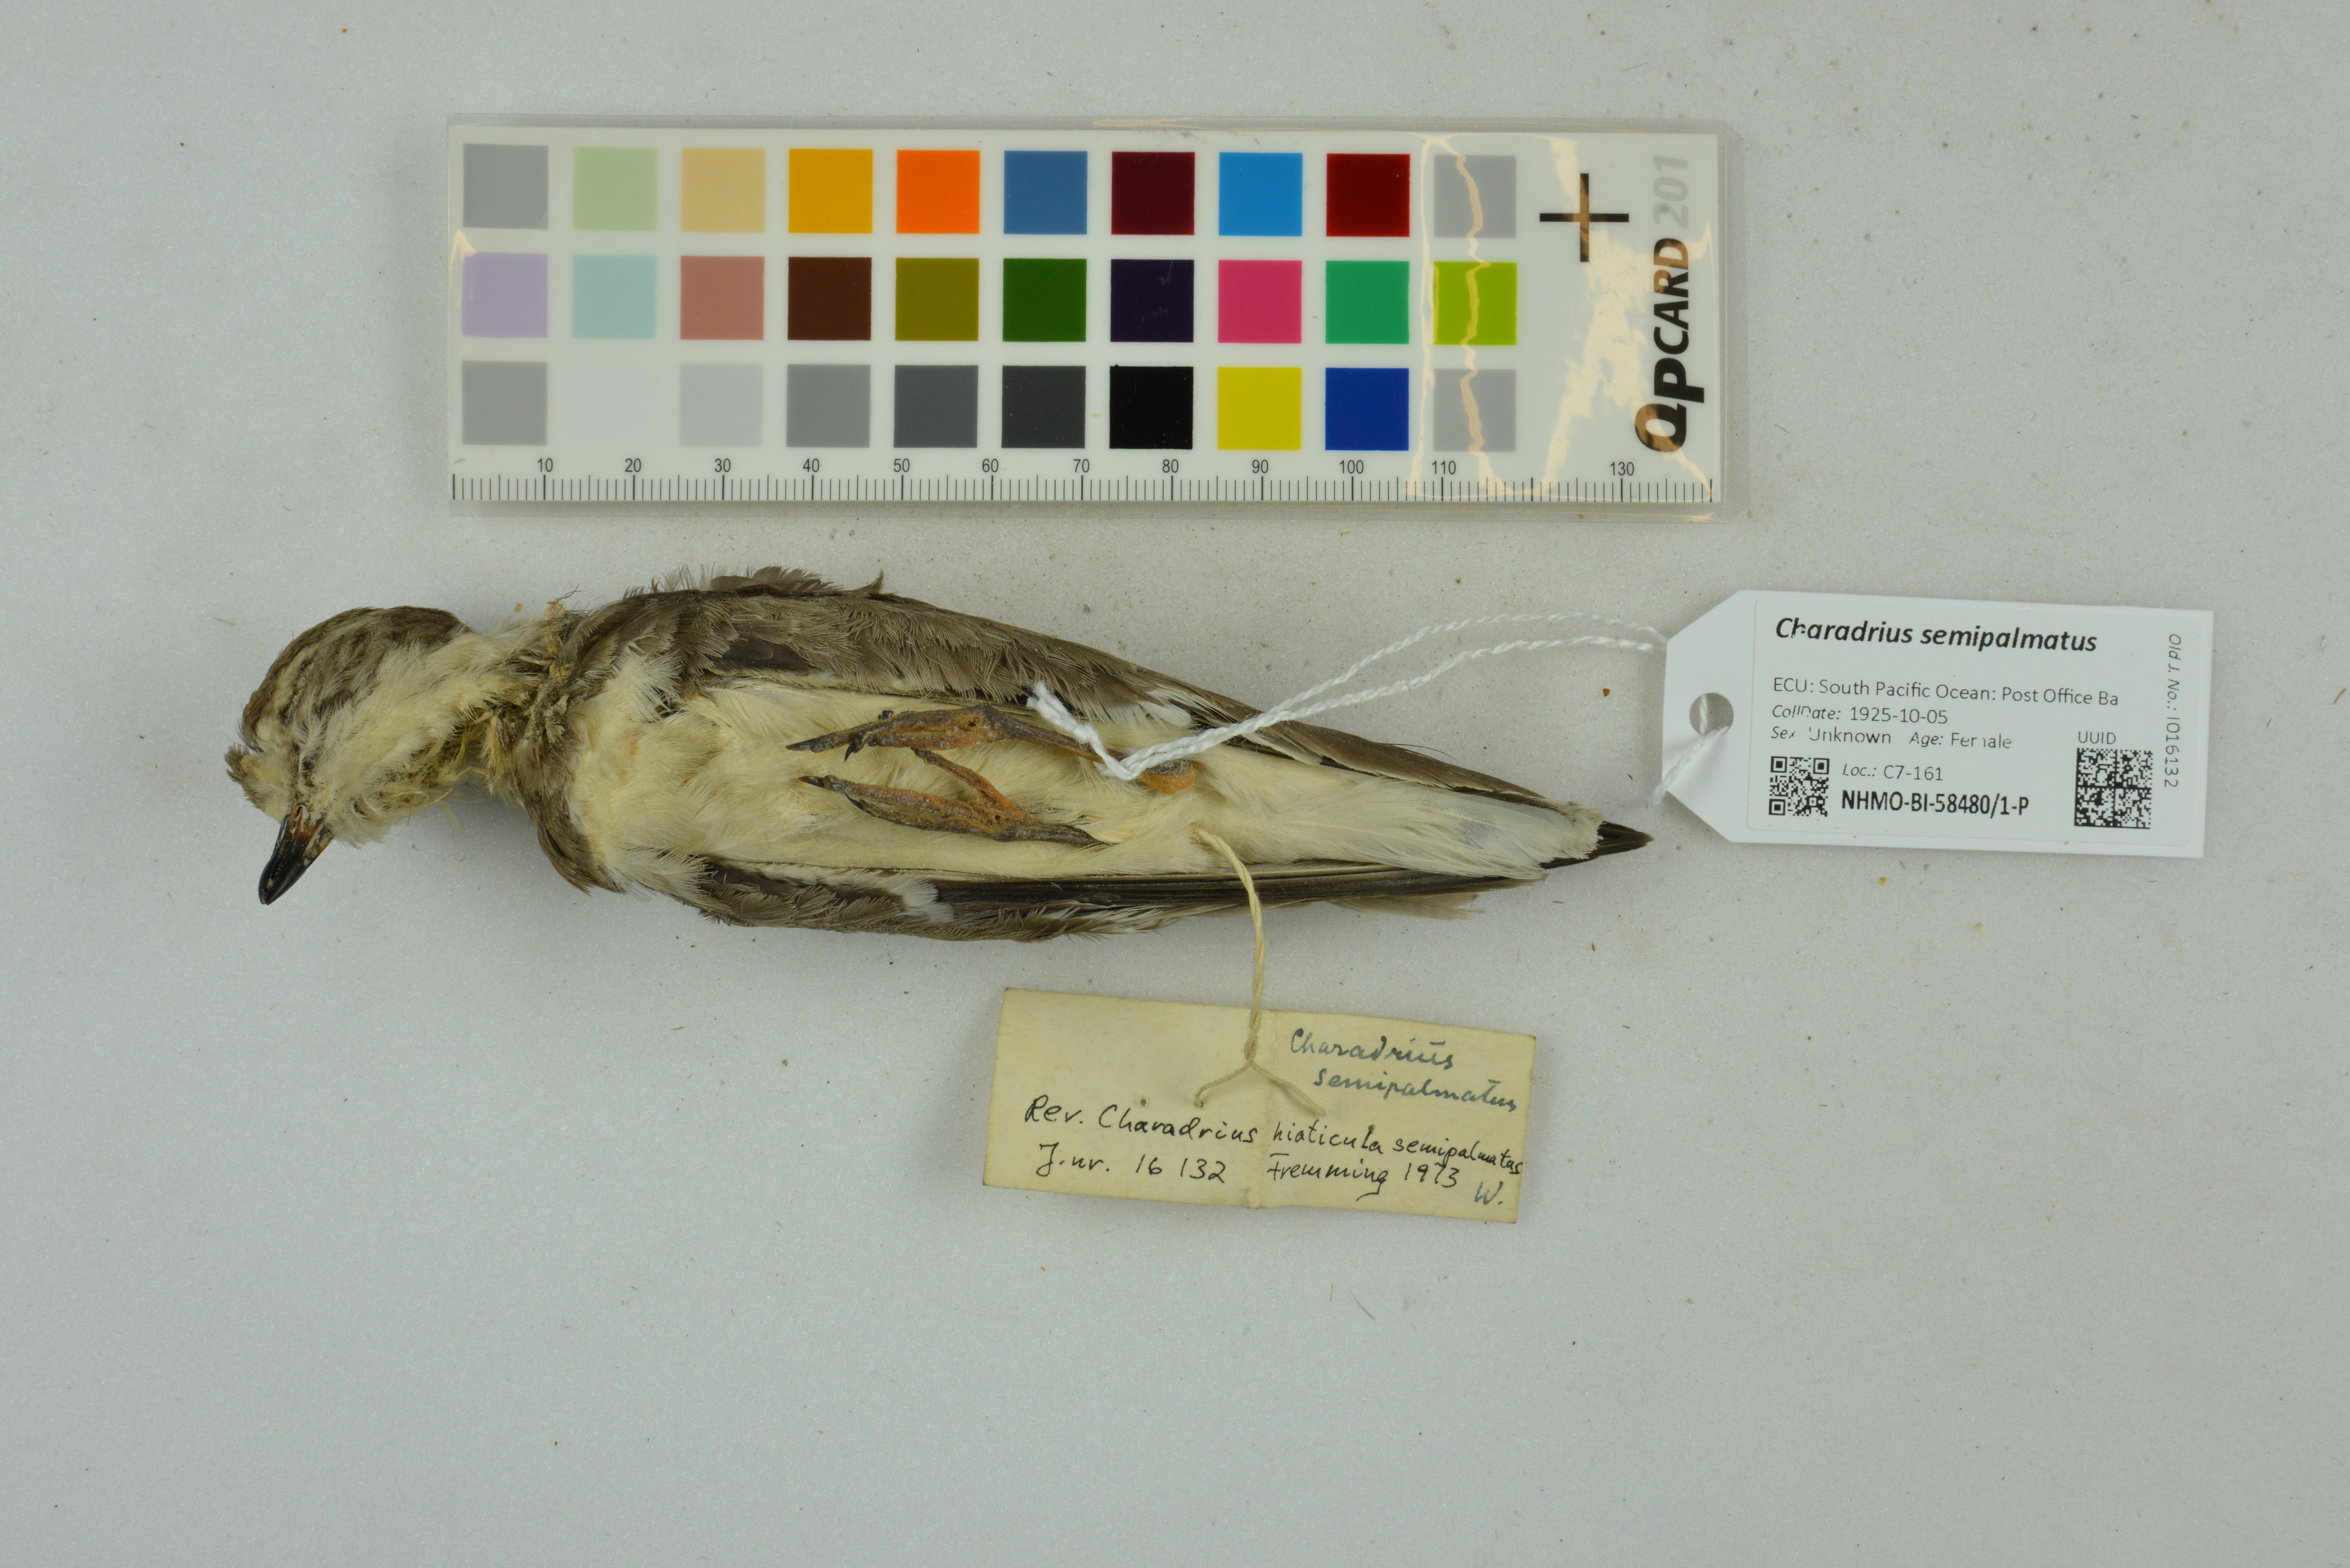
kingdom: Animalia
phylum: Chordata
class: Aves
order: Charadriiformes
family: Charadriidae
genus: Charadrius
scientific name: Charadrius semipalmatus
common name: Semipalmated plover
